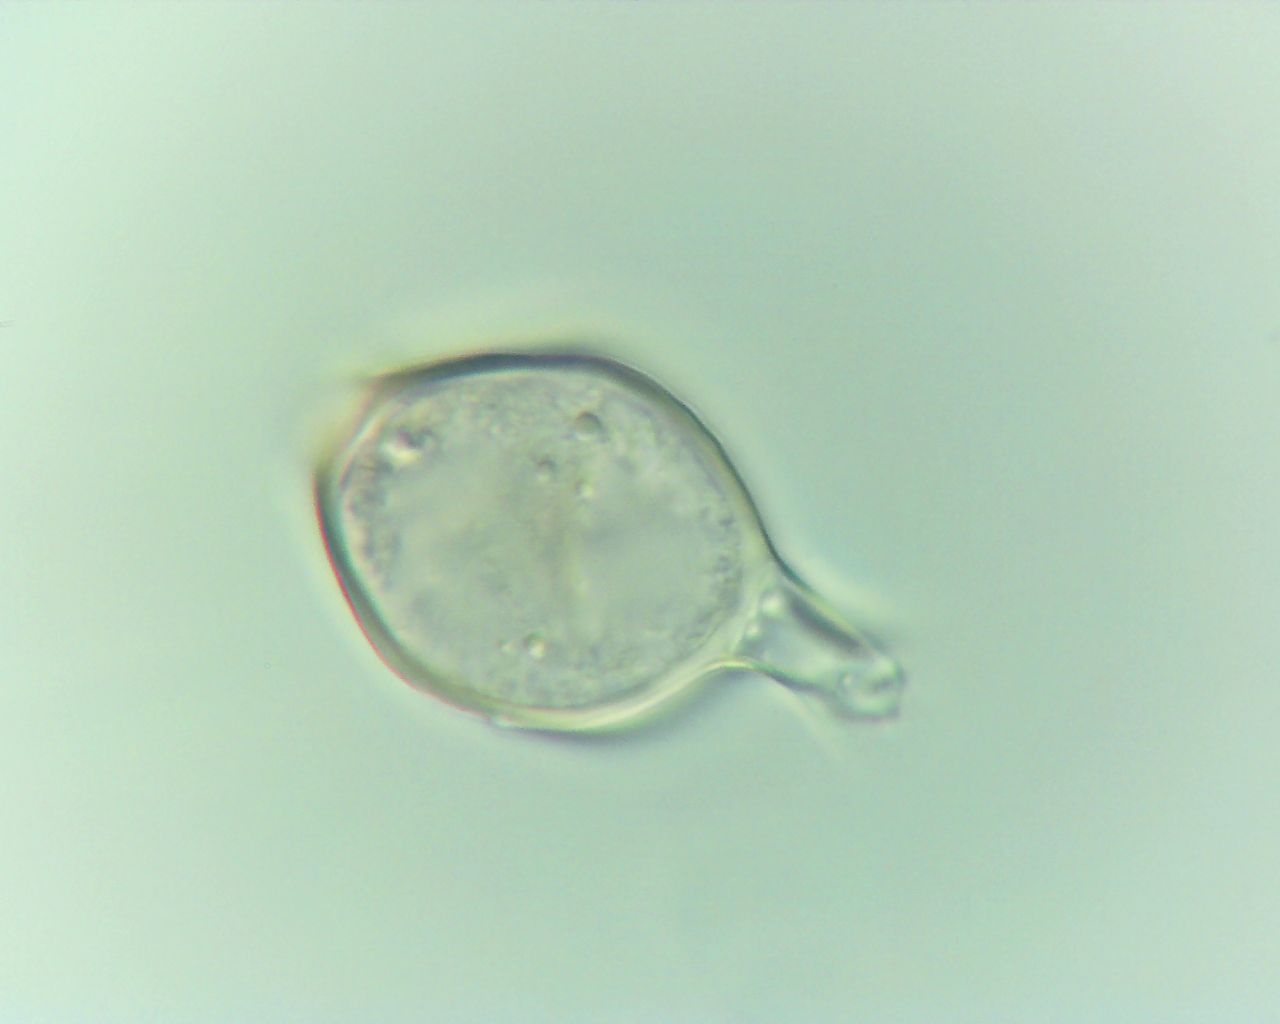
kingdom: Fungi
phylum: Basidiomycota
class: Pucciniomycetes
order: Pucciniales
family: Pucciniaceae
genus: Uromyces
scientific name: Uromyces ficariae
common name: vorterod-encellerust
